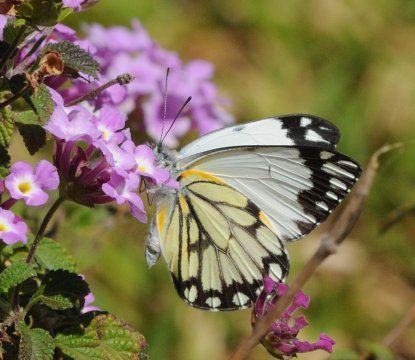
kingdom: Animalia
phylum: Arthropoda
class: Insecta
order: Lepidoptera
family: Pieridae
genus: Belenois
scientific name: Belenois creona
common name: African Caper
